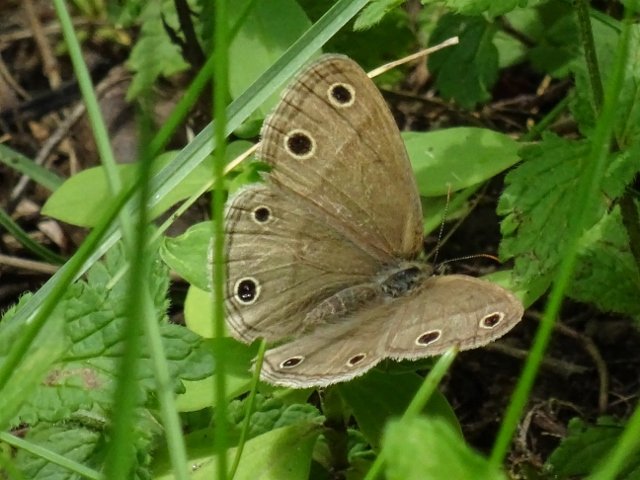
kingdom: Animalia
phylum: Arthropoda
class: Insecta
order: Lepidoptera
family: Nymphalidae
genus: Euptychia
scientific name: Euptychia cymela
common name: Little Wood Satyr
